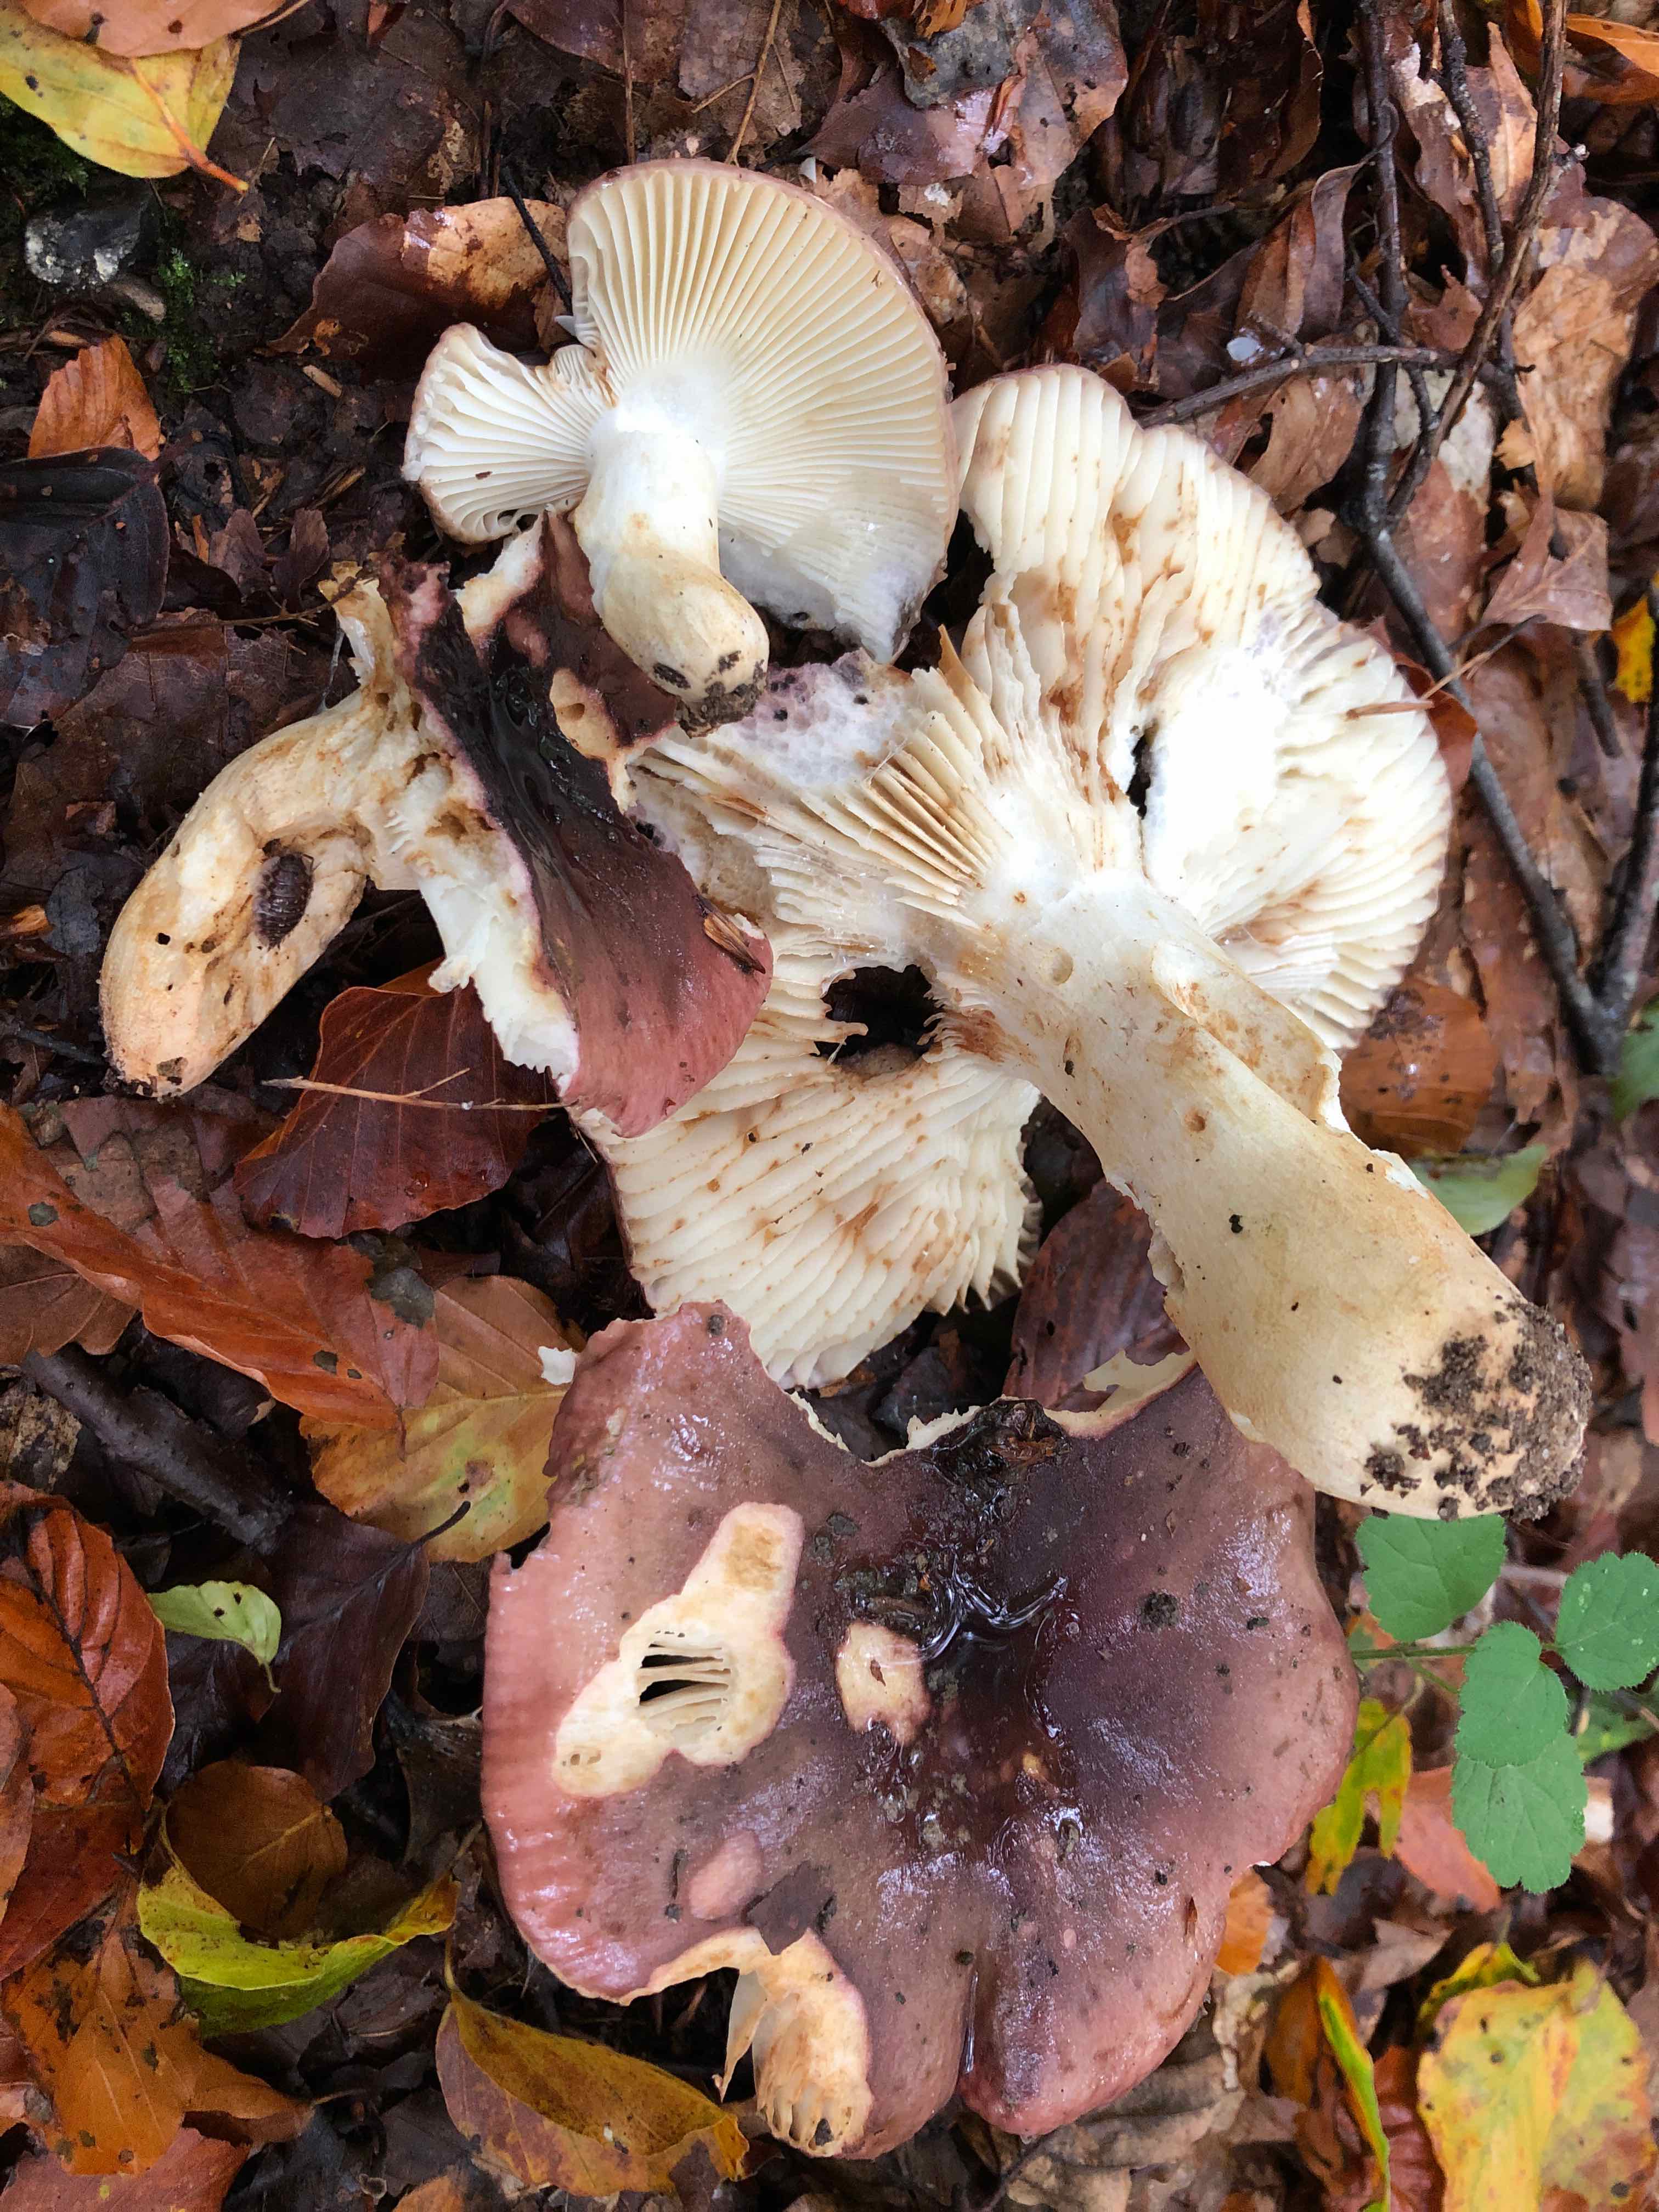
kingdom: Fungi
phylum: Basidiomycota
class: Agaricomycetes
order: Russulales
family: Russulaceae
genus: Russula
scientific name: Russula viscida
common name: knippe-skørhat
